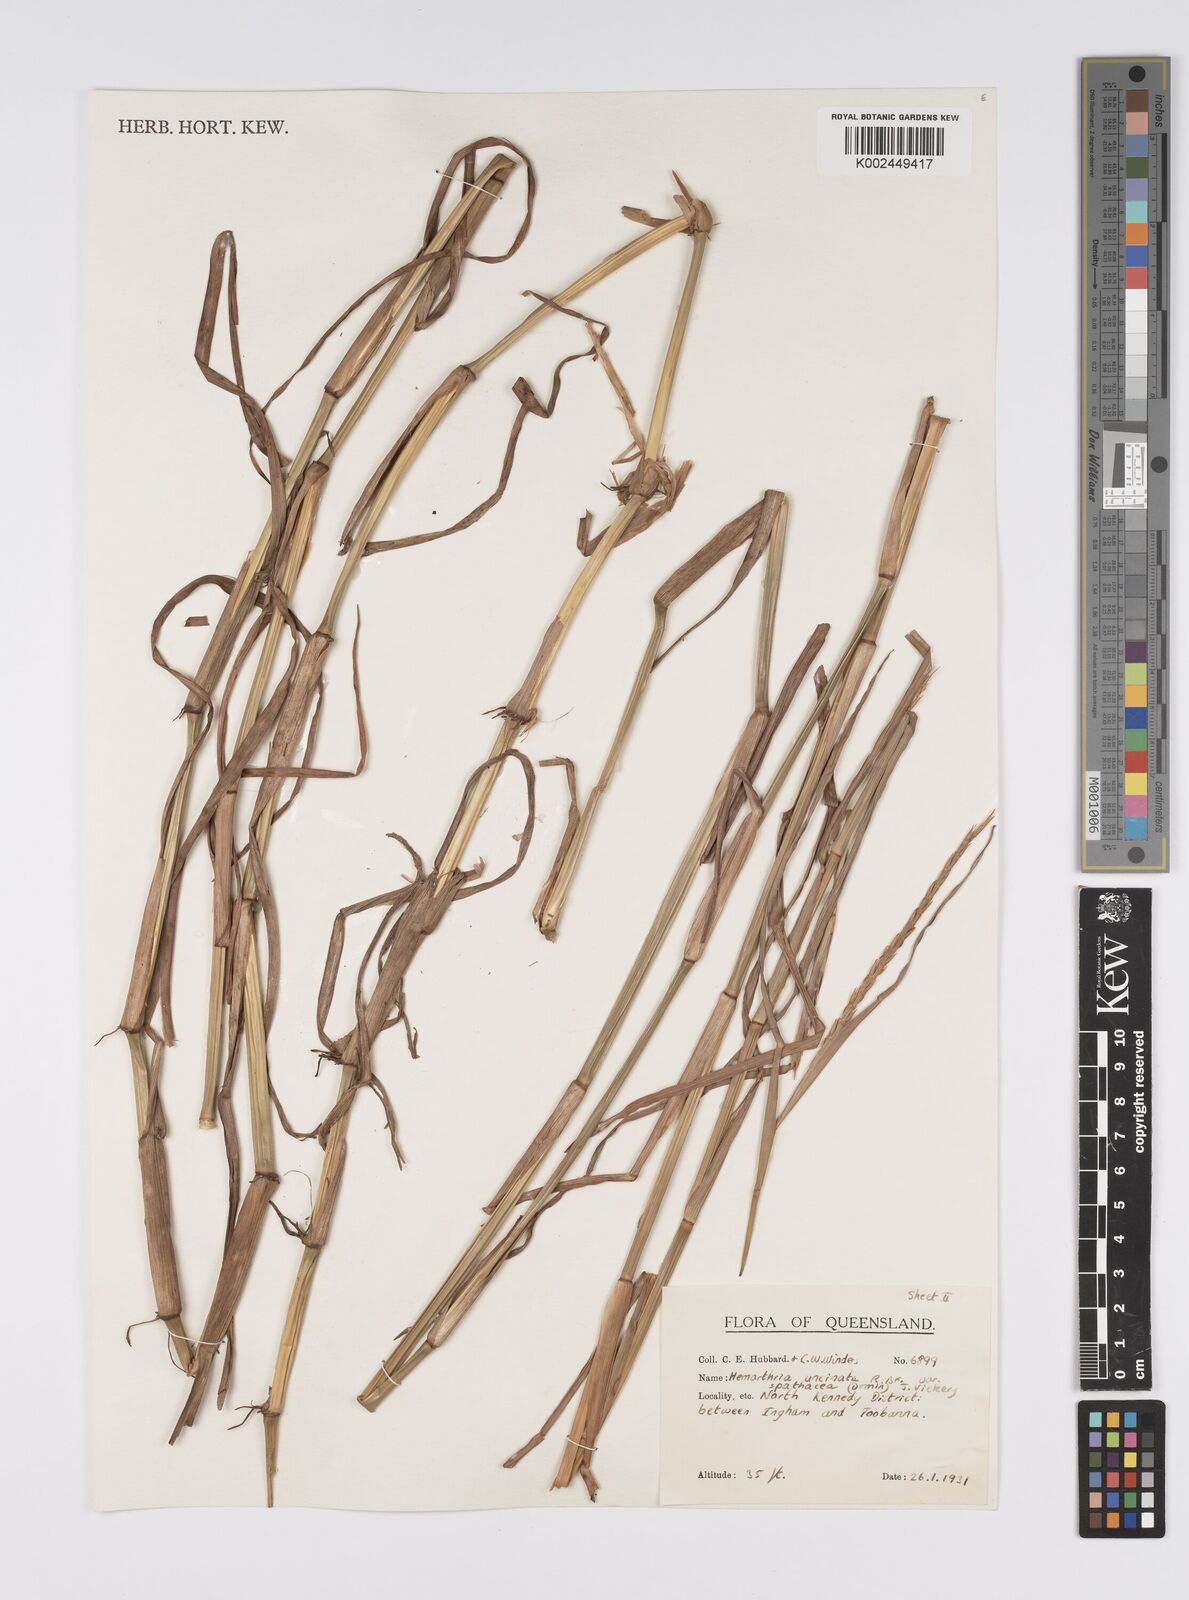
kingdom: Plantae
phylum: Tracheophyta
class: Liliopsida
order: Poales
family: Poaceae
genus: Hemarthria
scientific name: Hemarthria uncinata
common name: Matgrass
